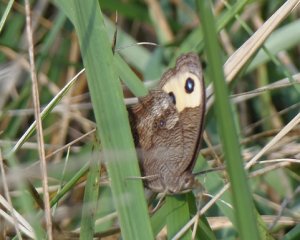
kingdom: Animalia
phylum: Arthropoda
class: Insecta
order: Lepidoptera
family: Nymphalidae
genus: Cercyonis
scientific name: Cercyonis pegala
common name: Common Wood-Nymph
